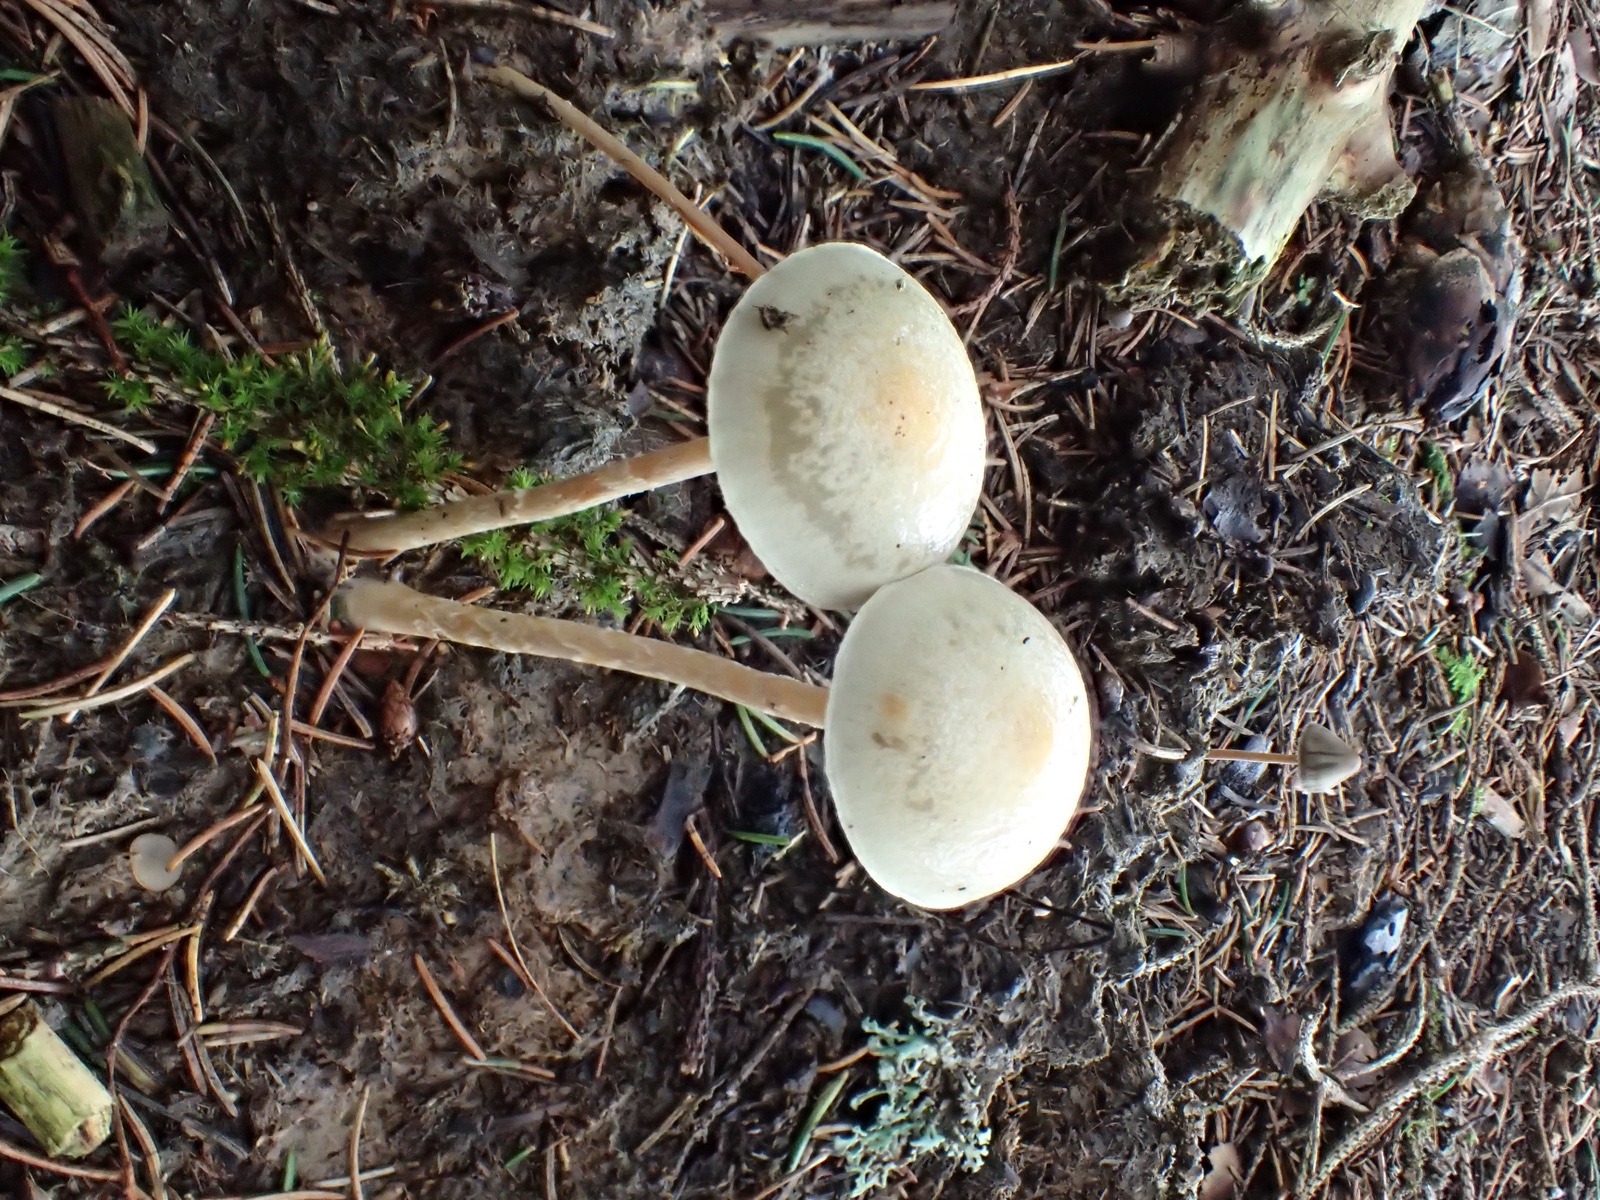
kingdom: Fungi
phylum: Basidiomycota
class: Agaricomycetes
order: Agaricales
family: Strophariaceae
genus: Protostropharia
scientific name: Protostropharia
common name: bredblad
